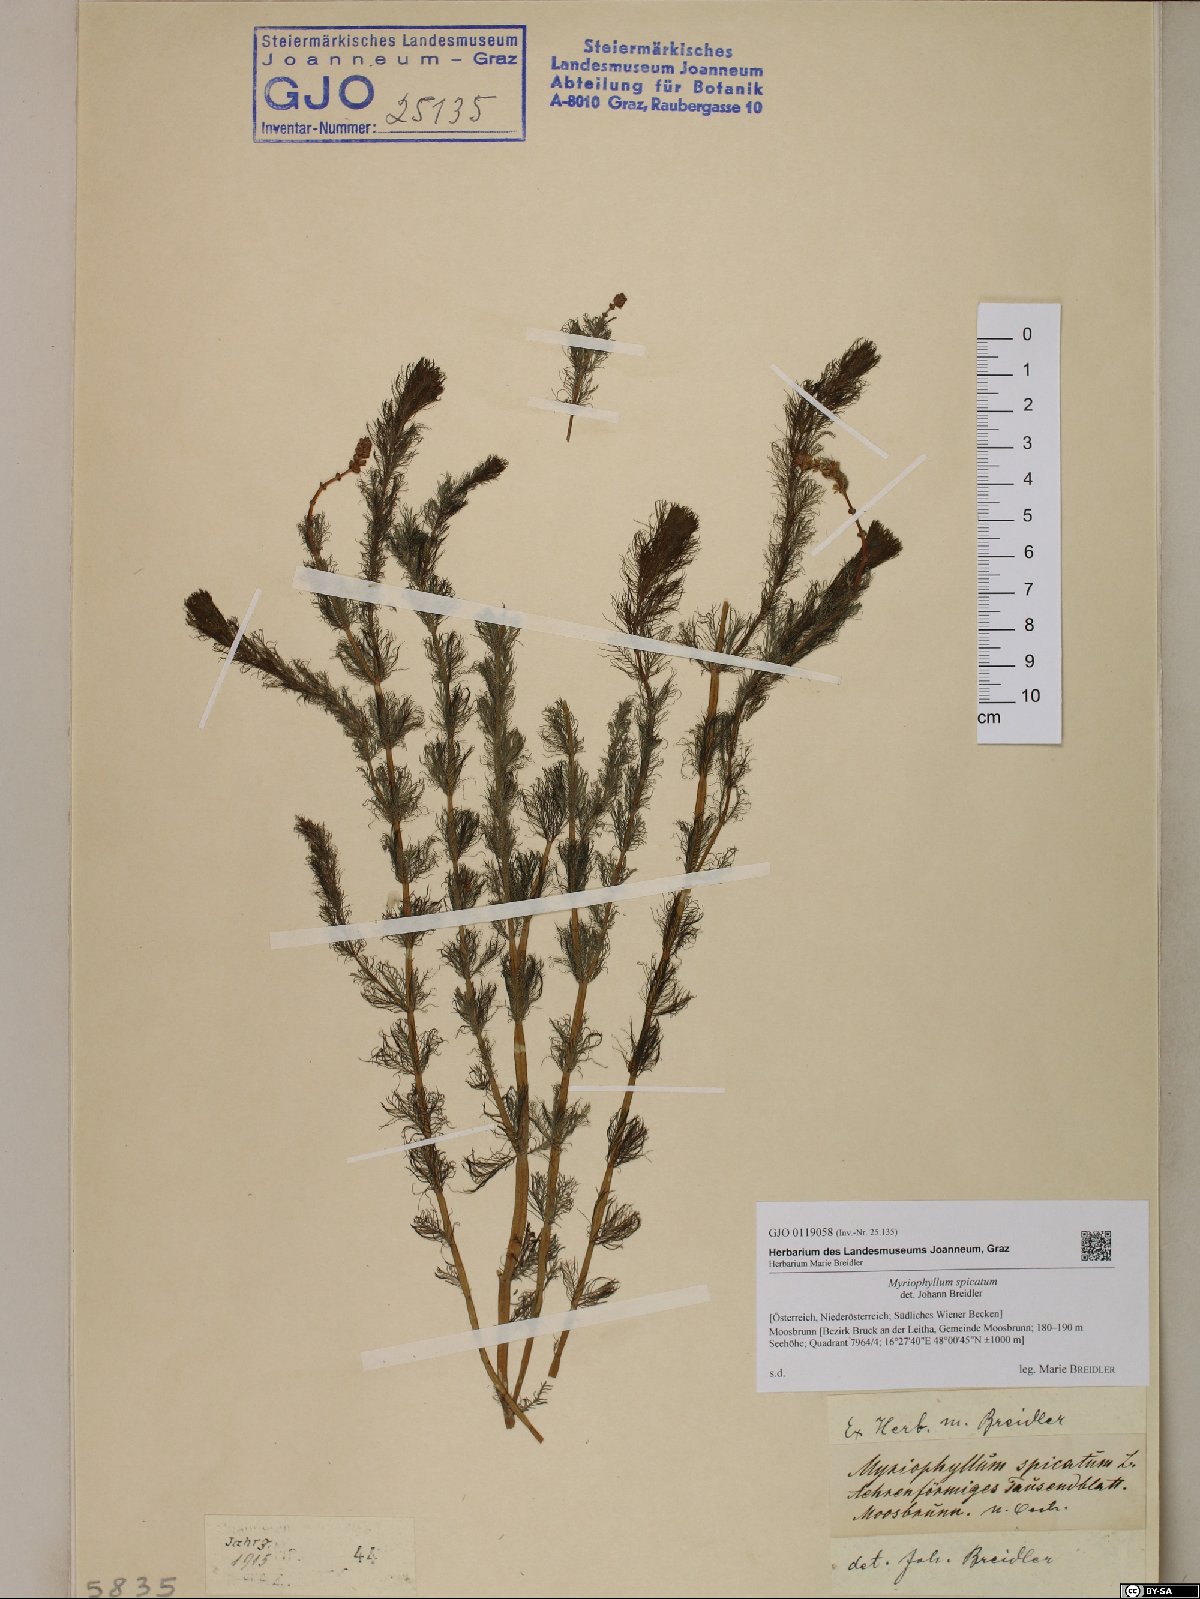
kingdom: Plantae
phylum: Tracheophyta
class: Magnoliopsida
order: Saxifragales
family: Haloragaceae
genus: Myriophyllum
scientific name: Myriophyllum spicatum
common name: Spiked water-milfoil
